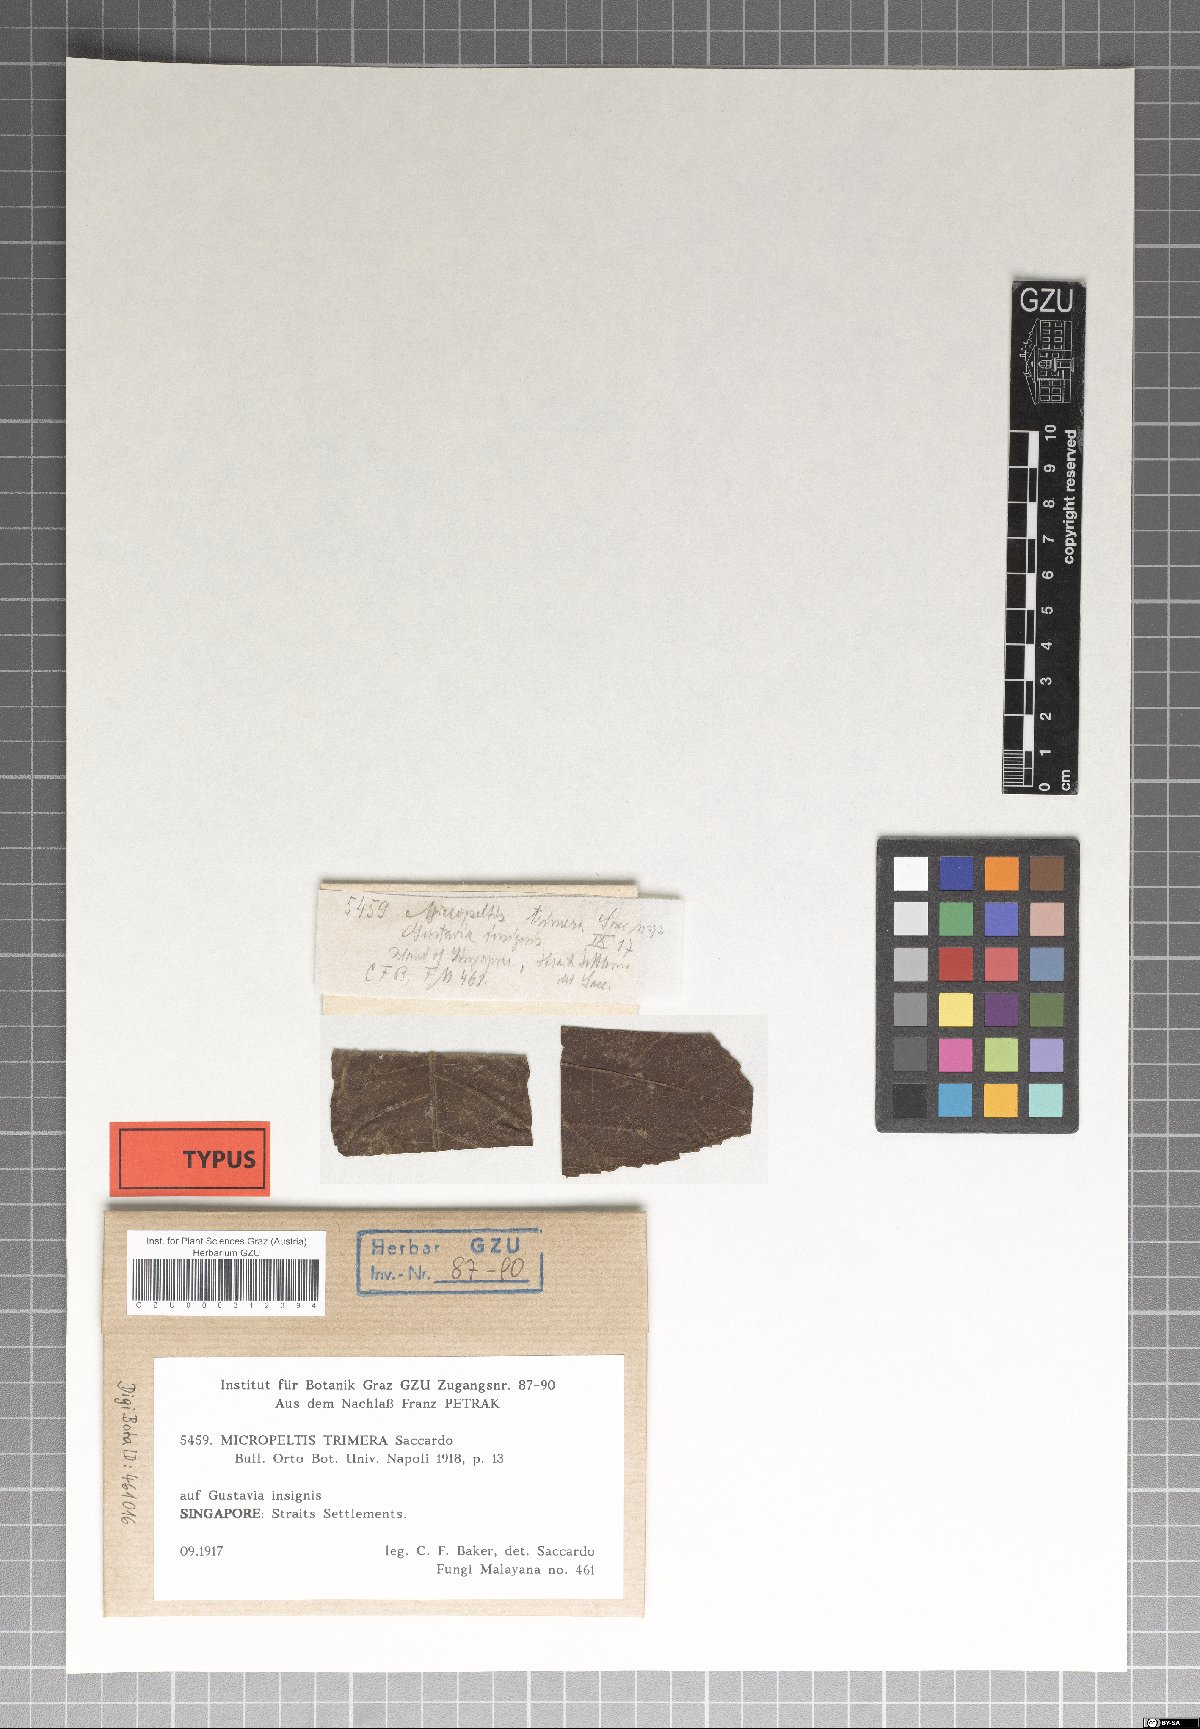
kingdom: Fungi
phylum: Ascomycota
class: Dothideomycetes
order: Microthyriales
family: Micropeltidaceae
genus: Dictyothyriella
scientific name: Dictyothyriella trimera
